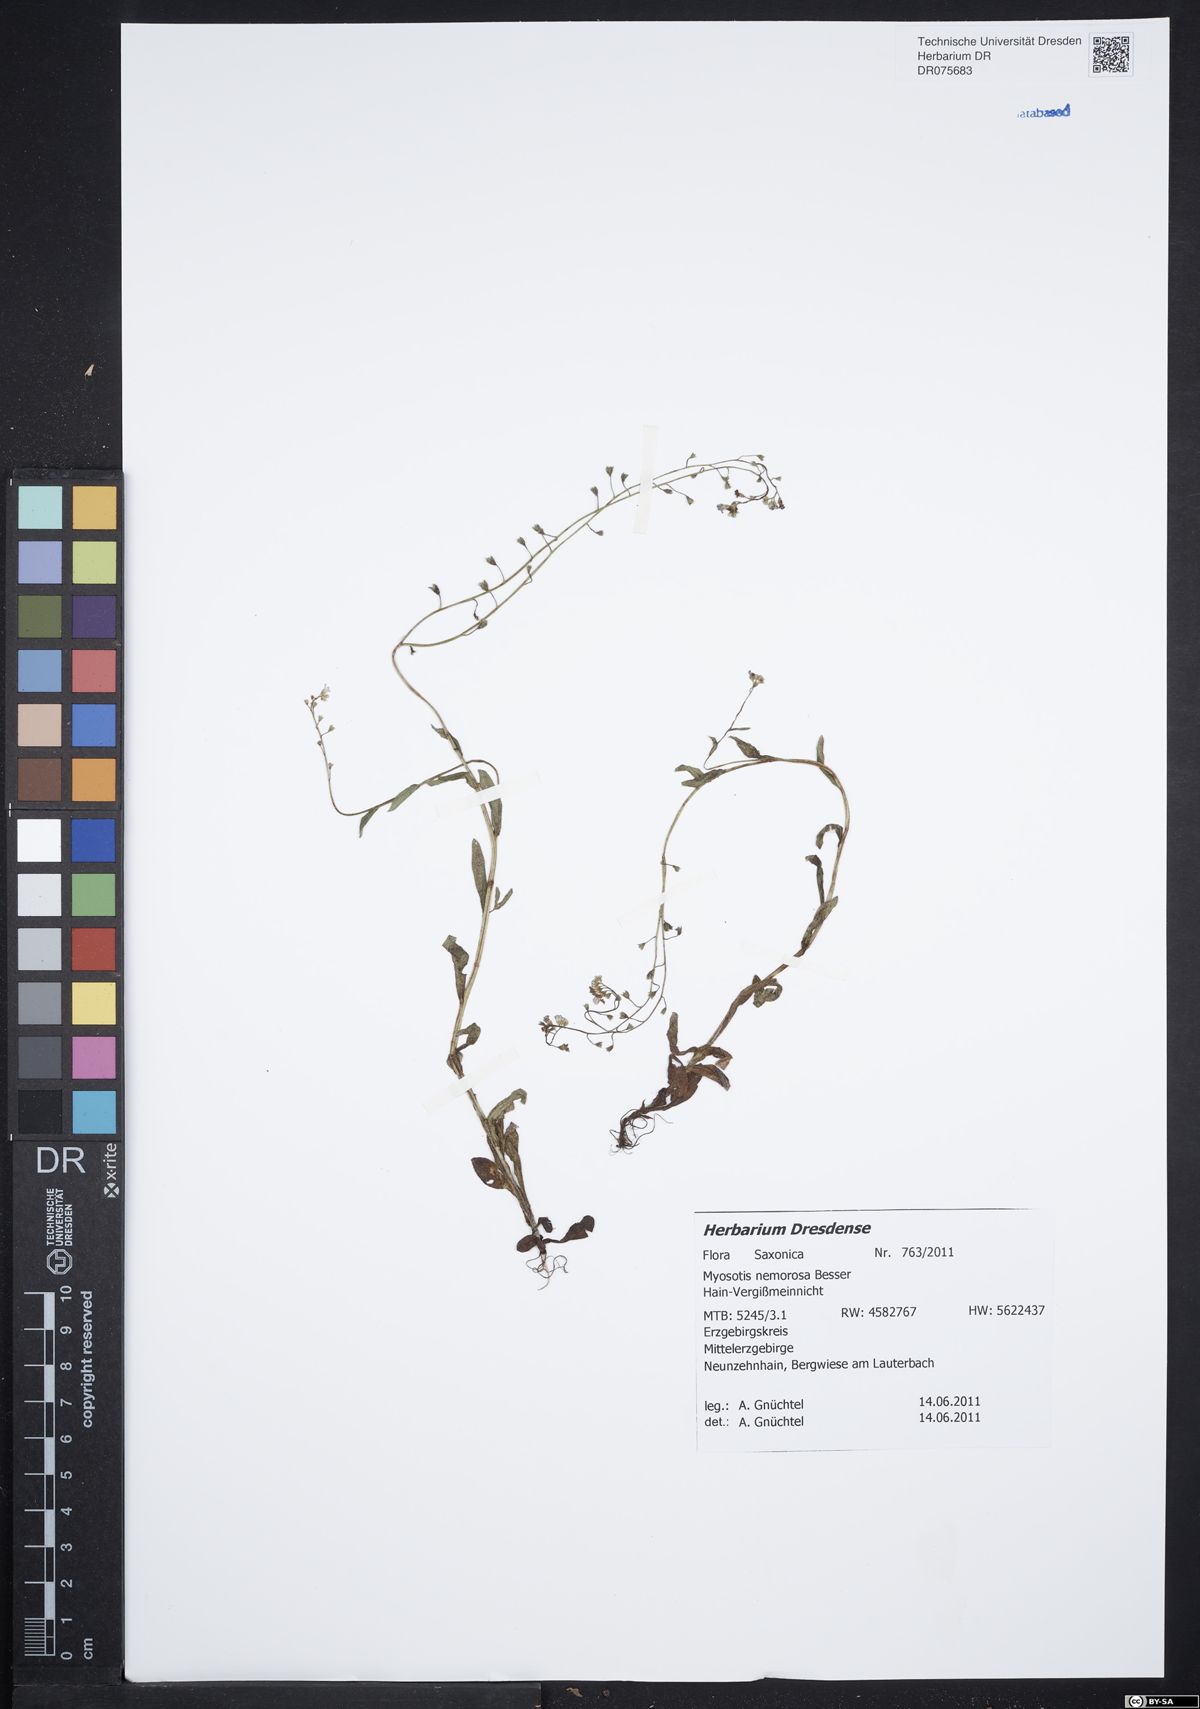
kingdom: Plantae
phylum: Tracheophyta
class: Magnoliopsida
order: Boraginales
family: Boraginaceae
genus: Myosotis
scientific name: Myosotis nemorosa
